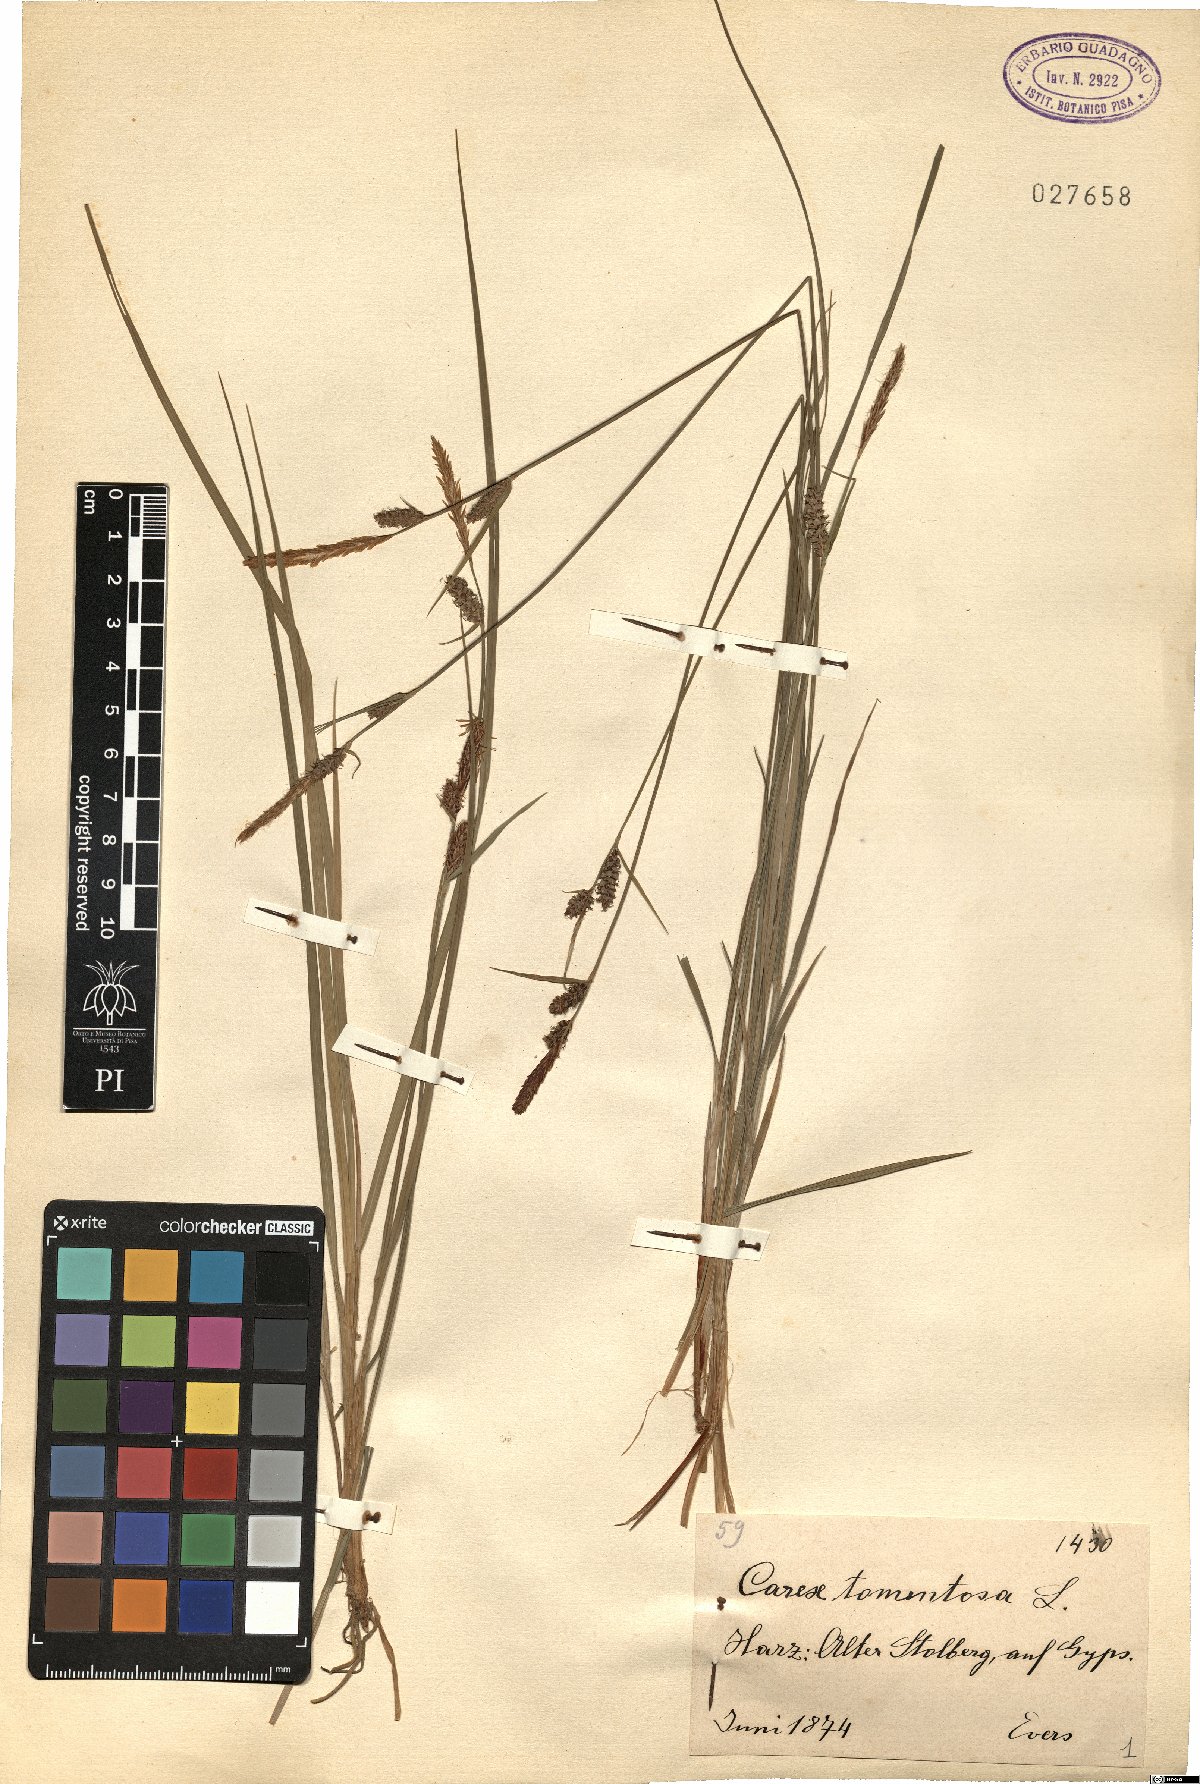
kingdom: Plantae
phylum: Tracheophyta
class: Liliopsida
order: Poales
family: Cyperaceae
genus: Carex
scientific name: Carex tomentosa
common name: Downy-fruited sedge
